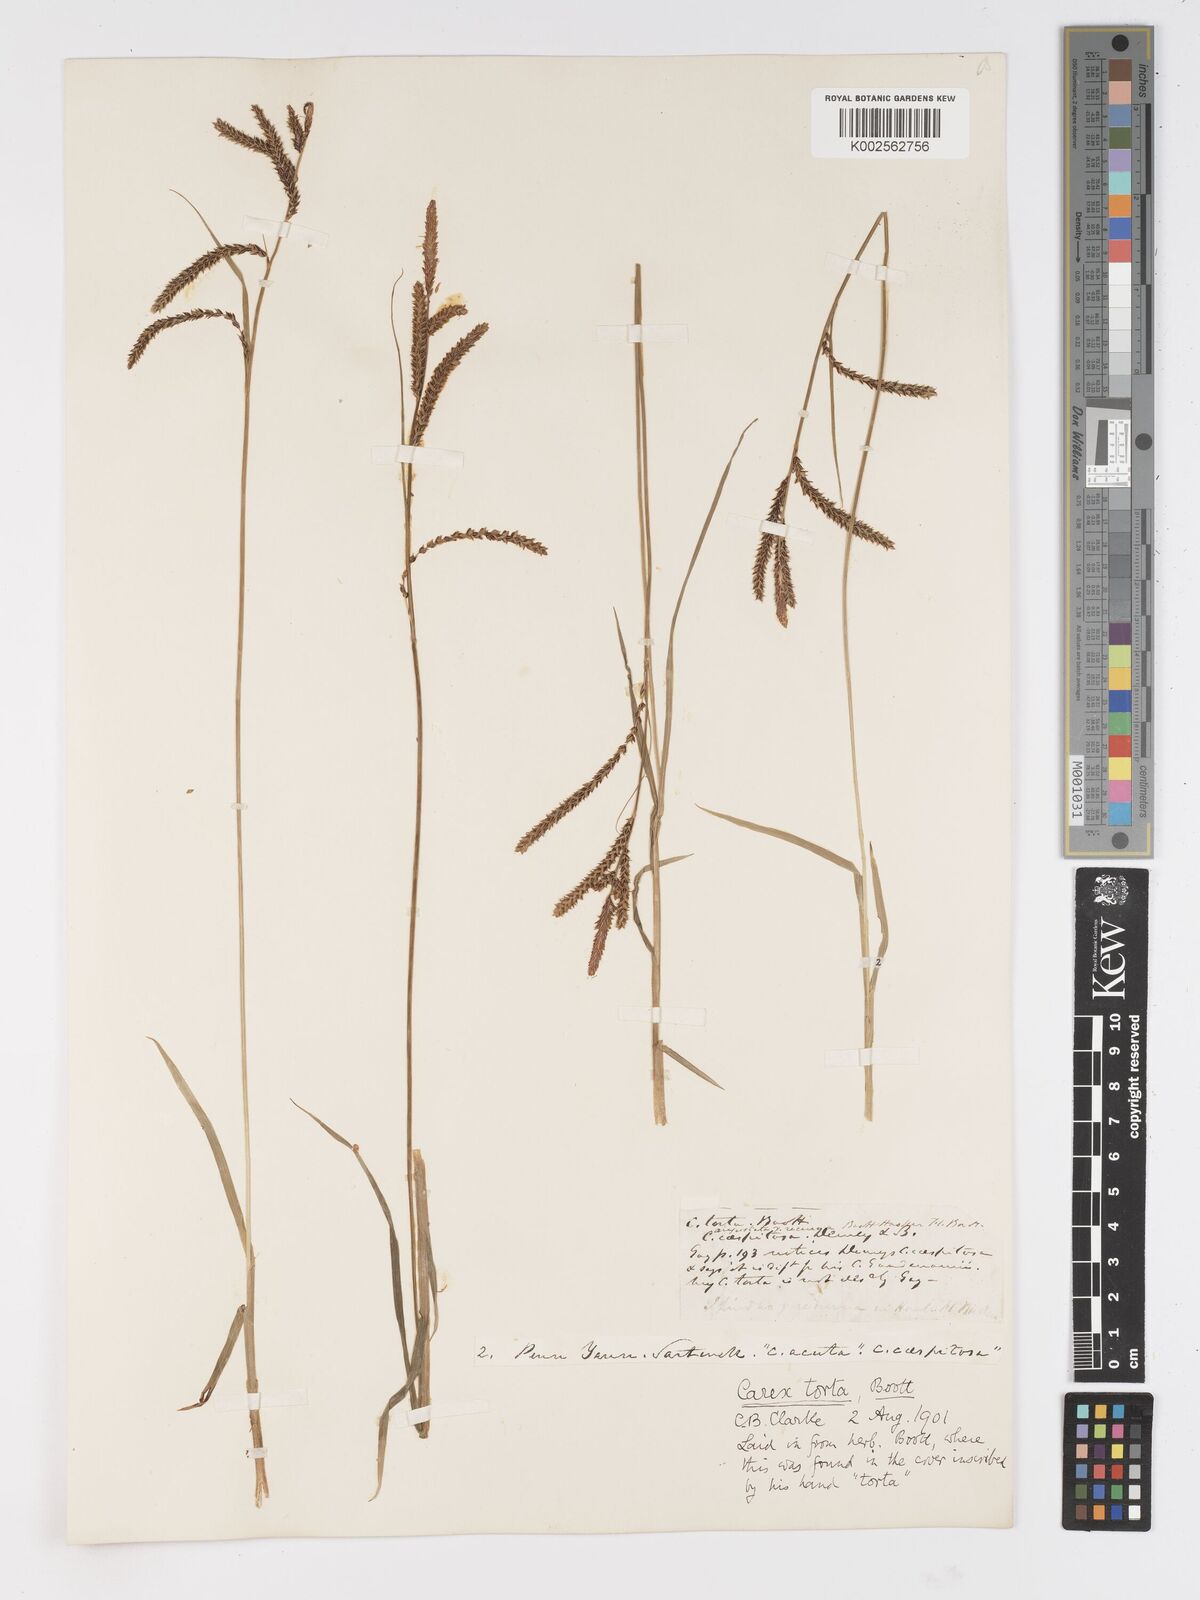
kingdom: Plantae
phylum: Tracheophyta
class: Liliopsida
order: Poales
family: Cyperaceae
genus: Carex
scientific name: Carex torta
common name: Twisted sedge
